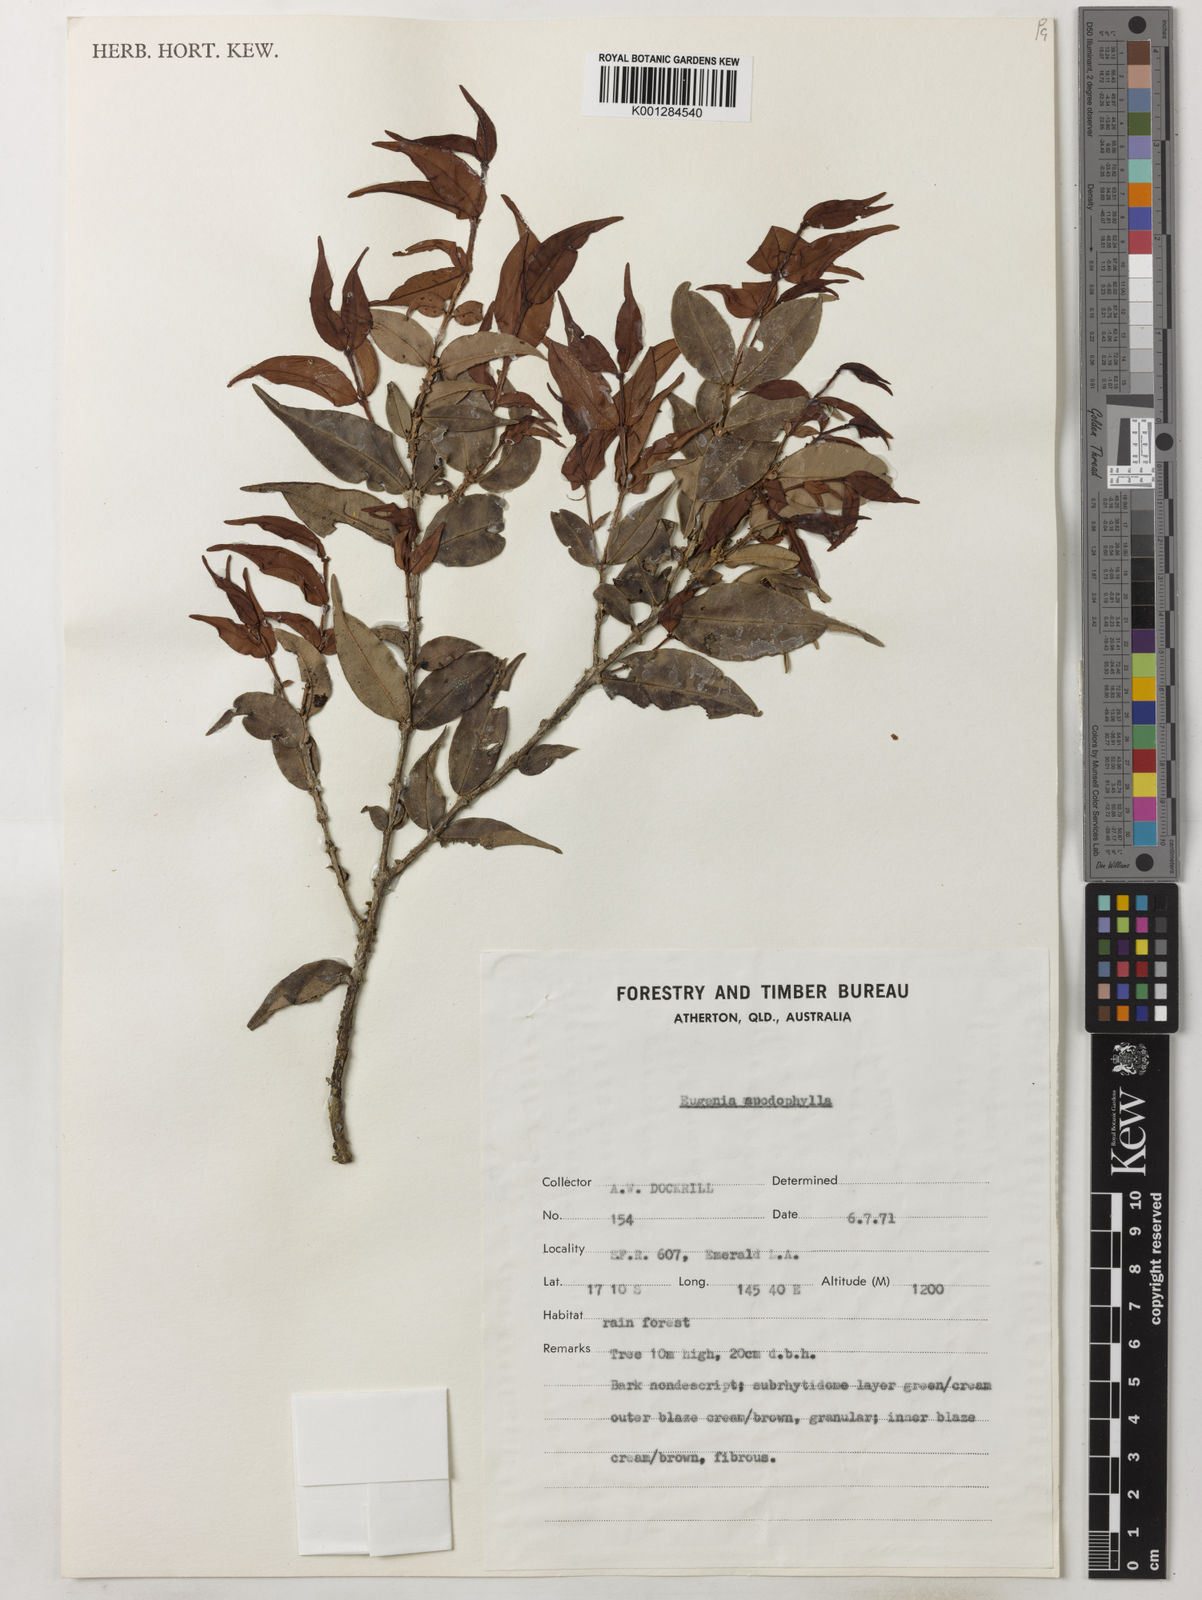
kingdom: Plantae
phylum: Tracheophyta
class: Magnoliopsida
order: Myrtales
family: Myrtaceae
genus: Syzygium
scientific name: Syzygium apodophyllum
